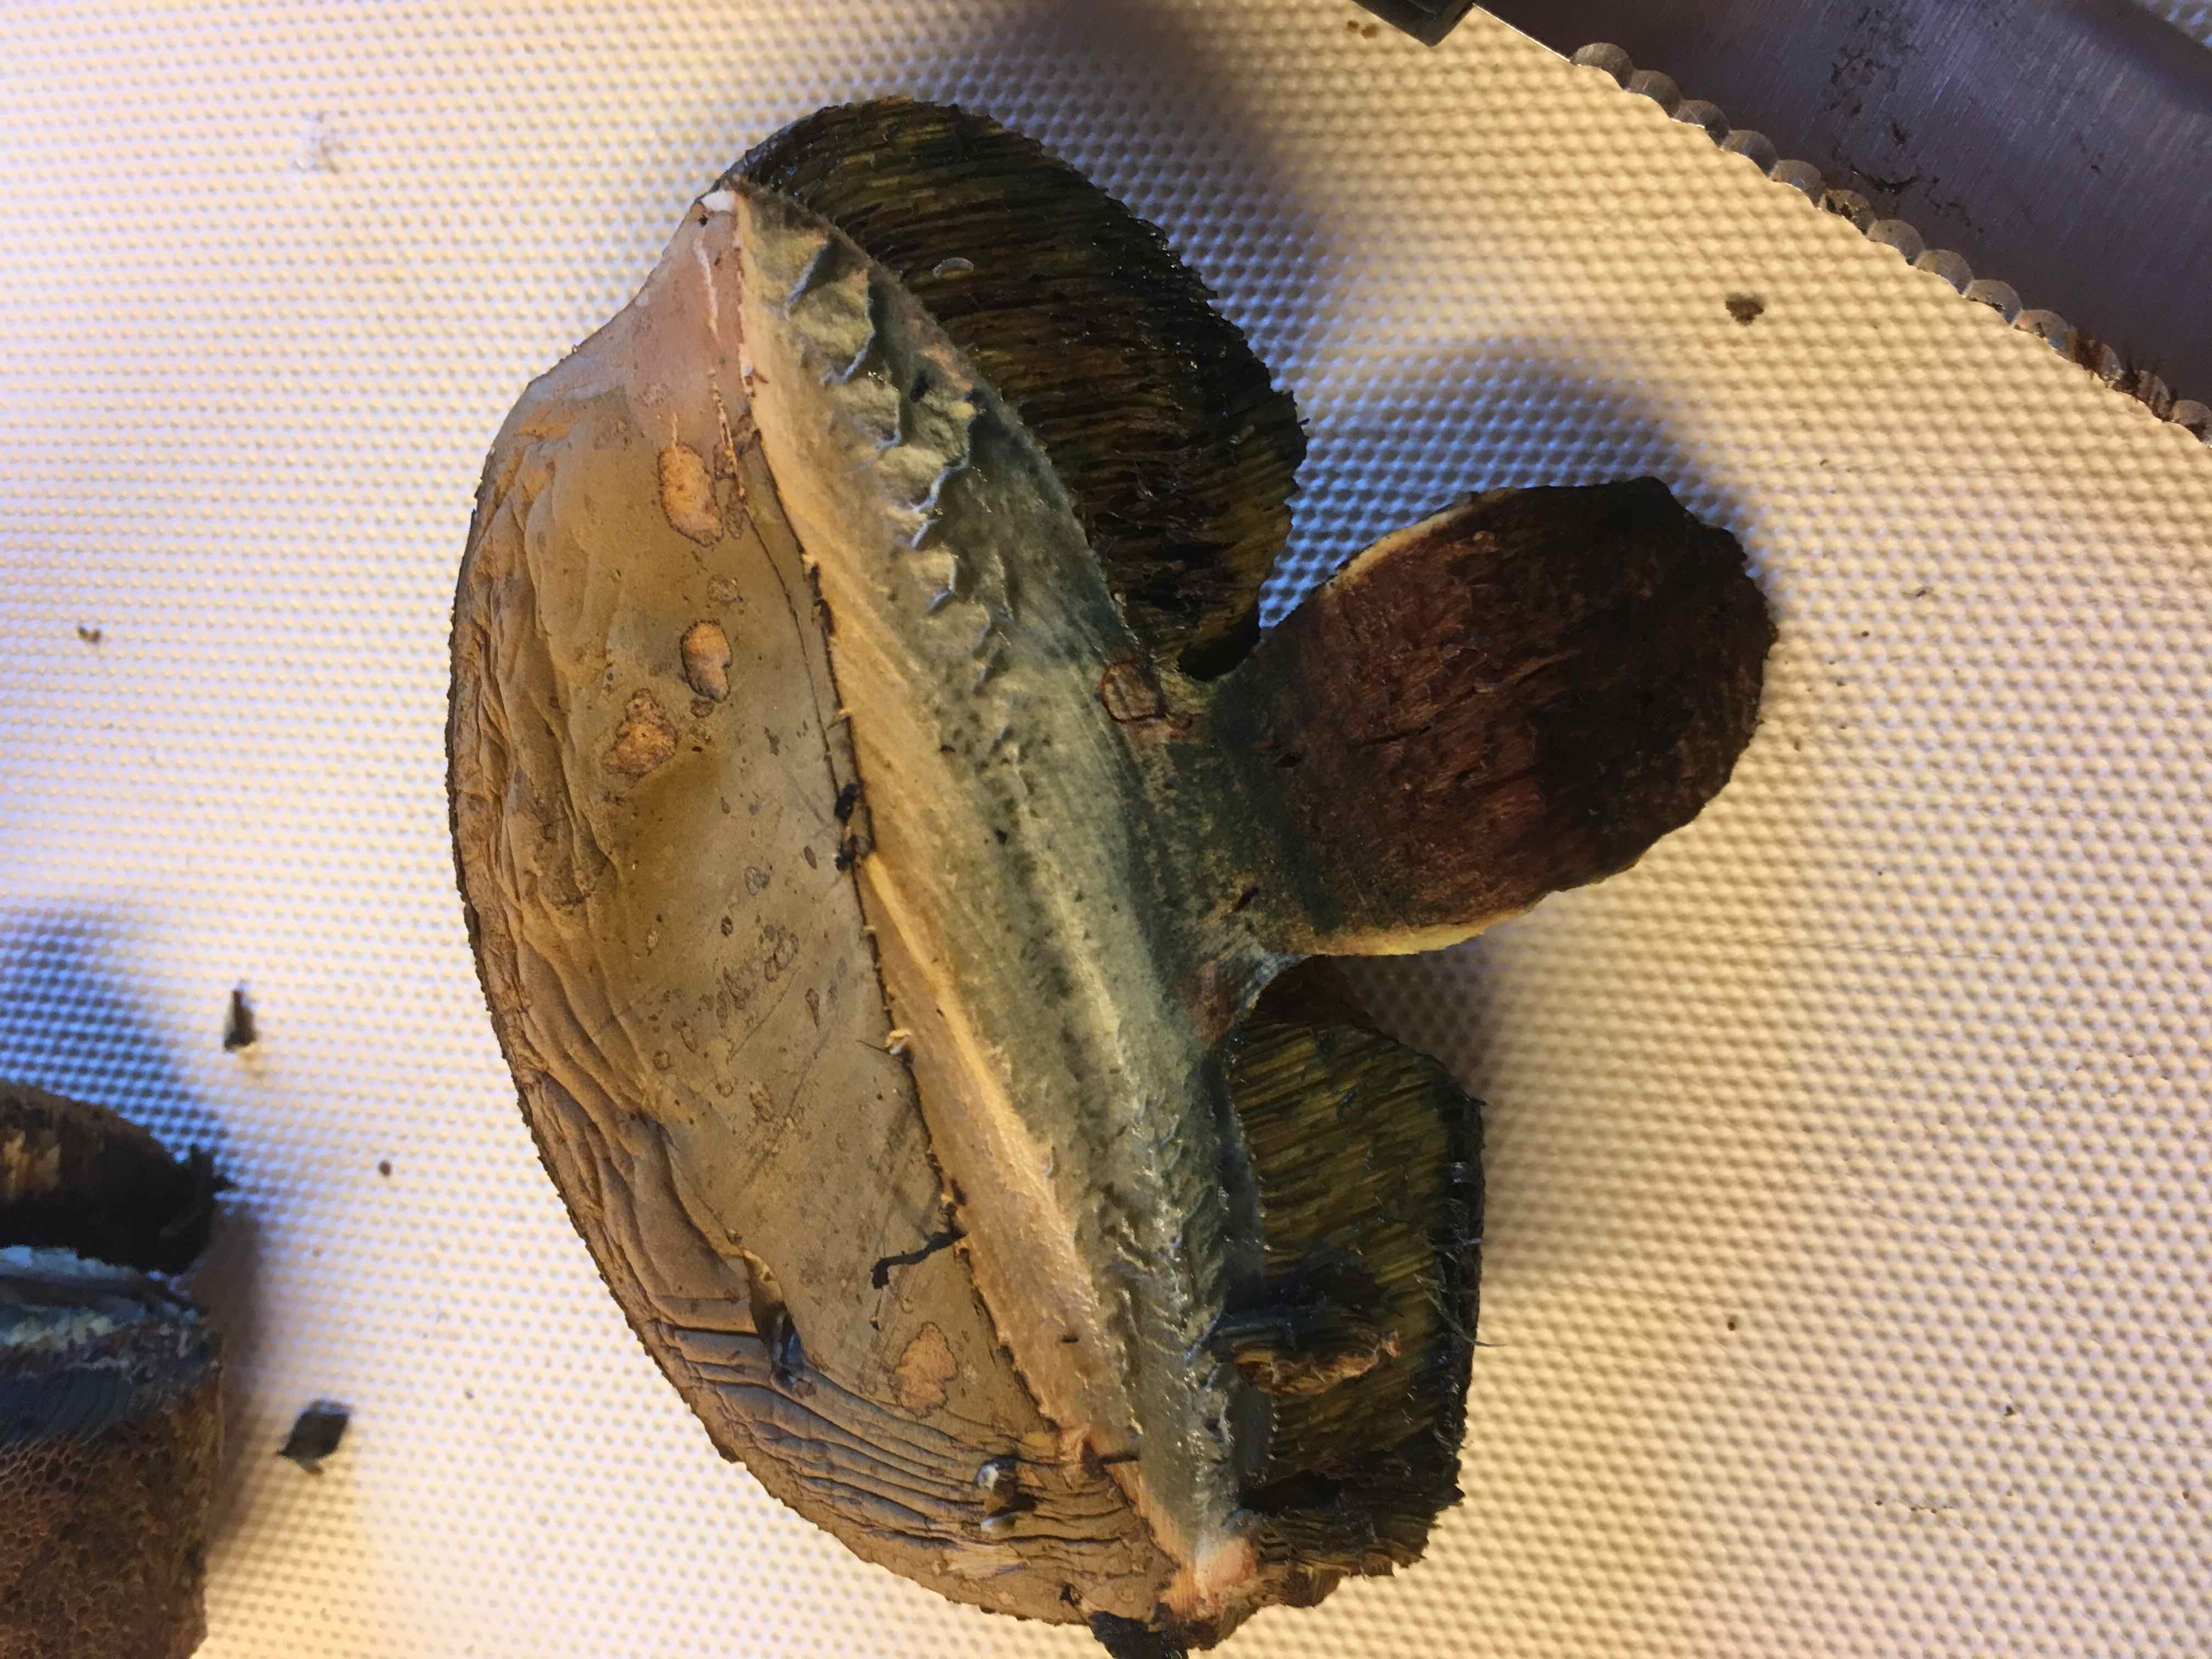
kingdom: Fungi
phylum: Basidiomycota
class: Agaricomycetes
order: Boletales
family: Boletaceae
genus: Suillellus
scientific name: Suillellus luridus
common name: netstokket indigorørhat
